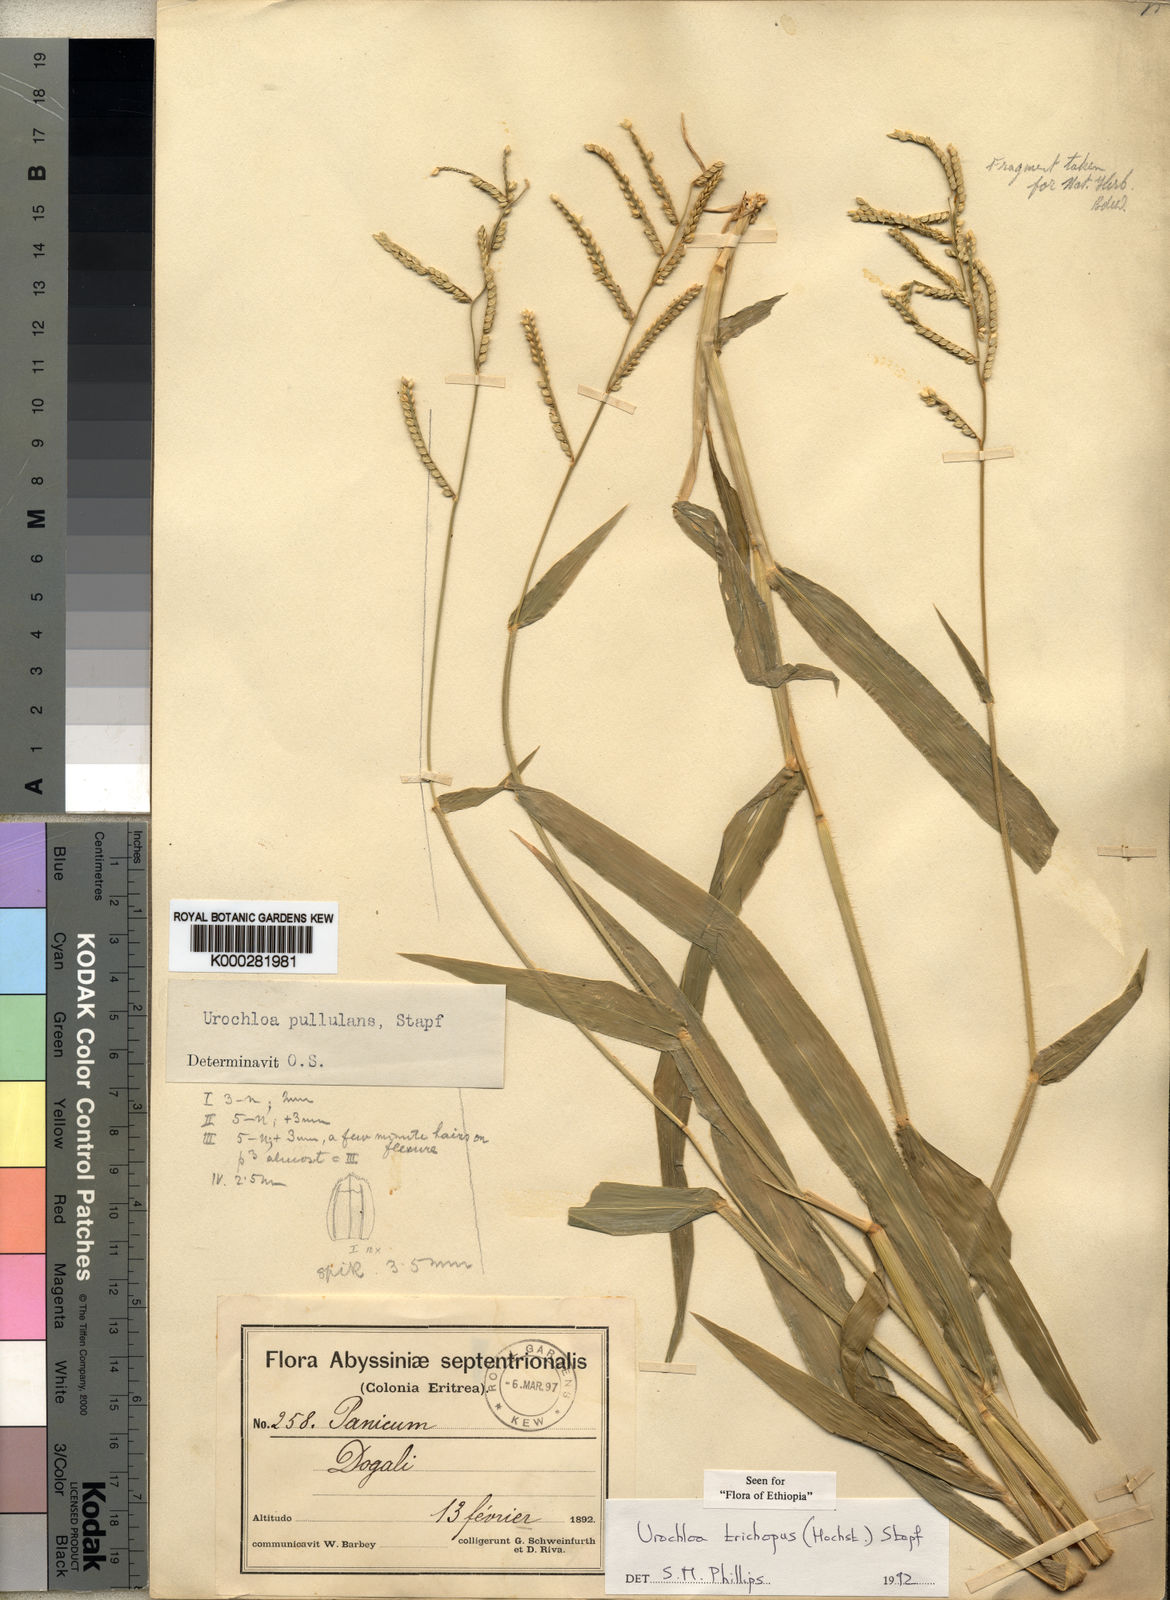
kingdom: Plantae
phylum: Tracheophyta
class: Liliopsida
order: Poales
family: Poaceae
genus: Urochloa
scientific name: Urochloa trichopus
